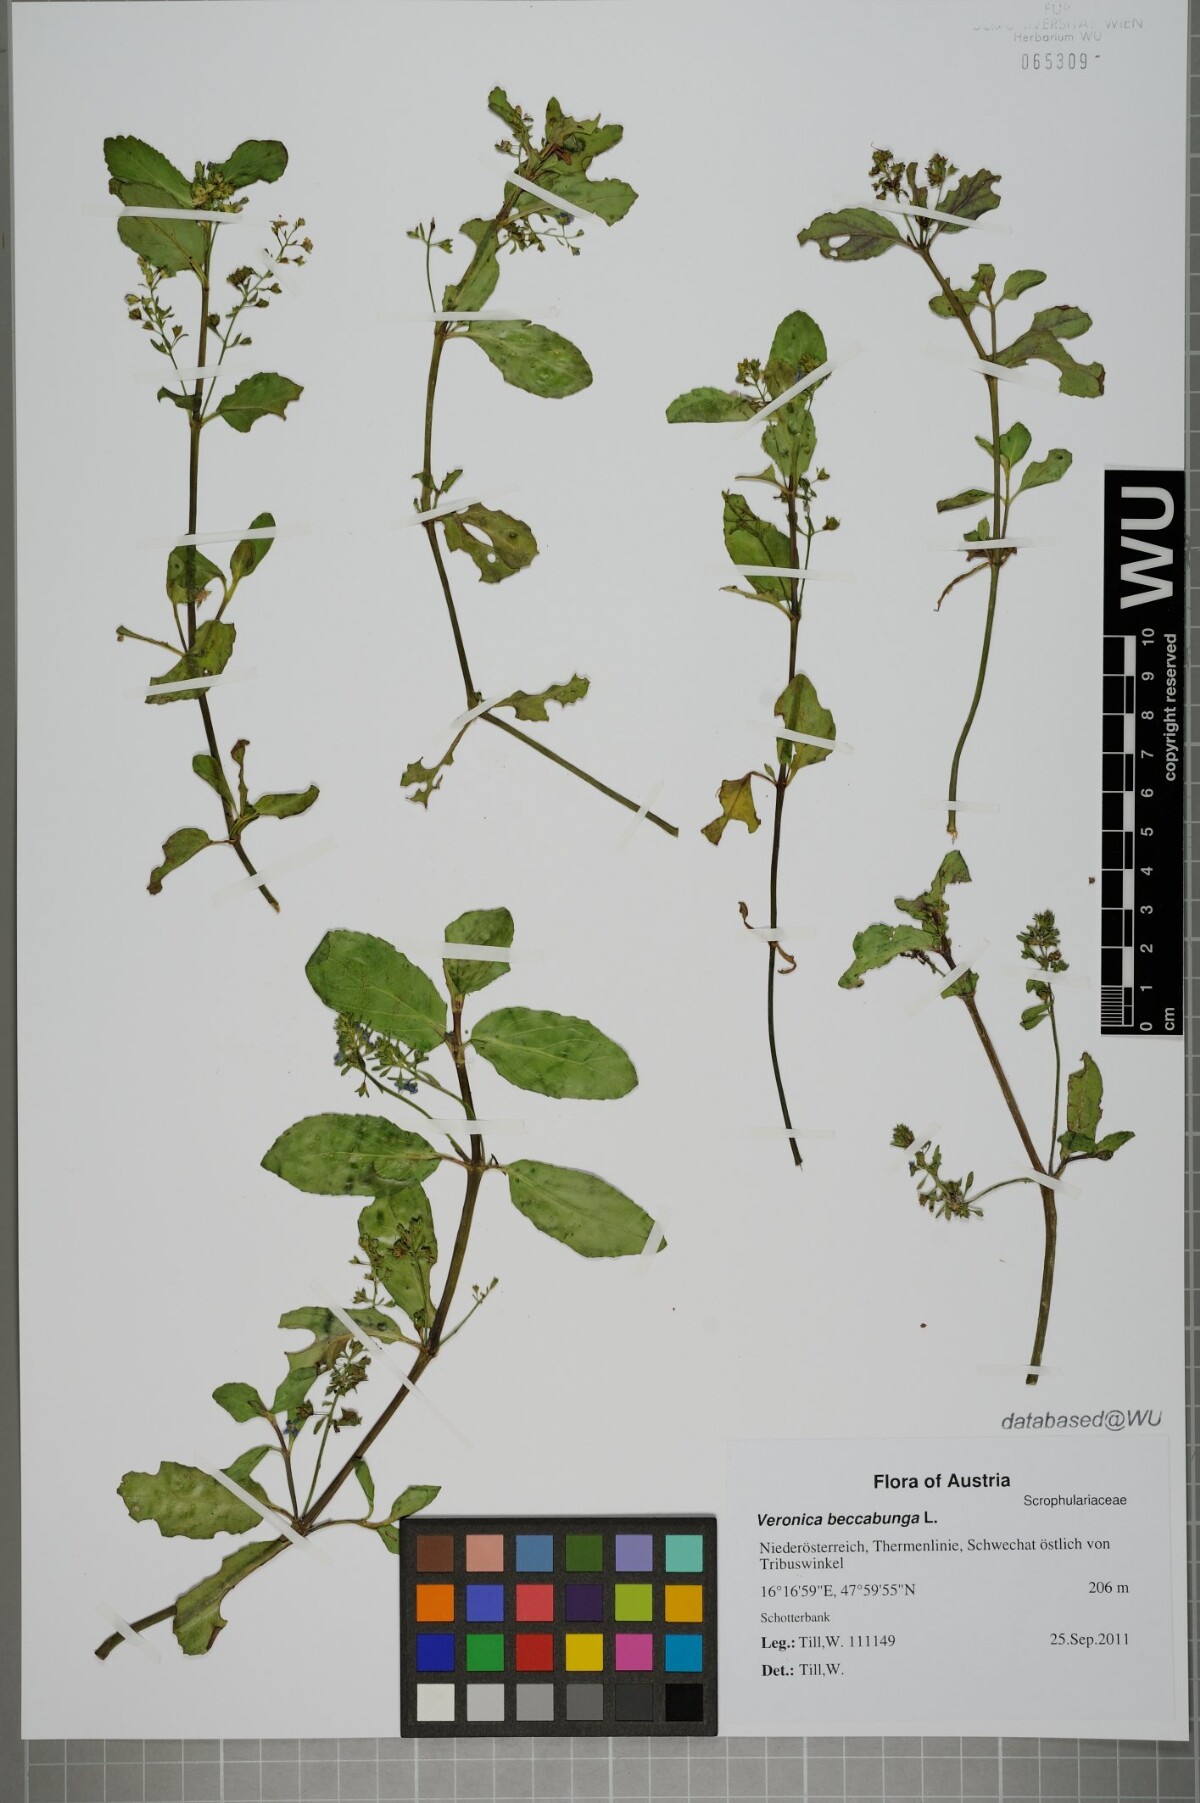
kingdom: Plantae
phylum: Tracheophyta
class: Magnoliopsida
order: Lamiales
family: Plantaginaceae
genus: Veronica
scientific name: Veronica beccabunga
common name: Brooklime
